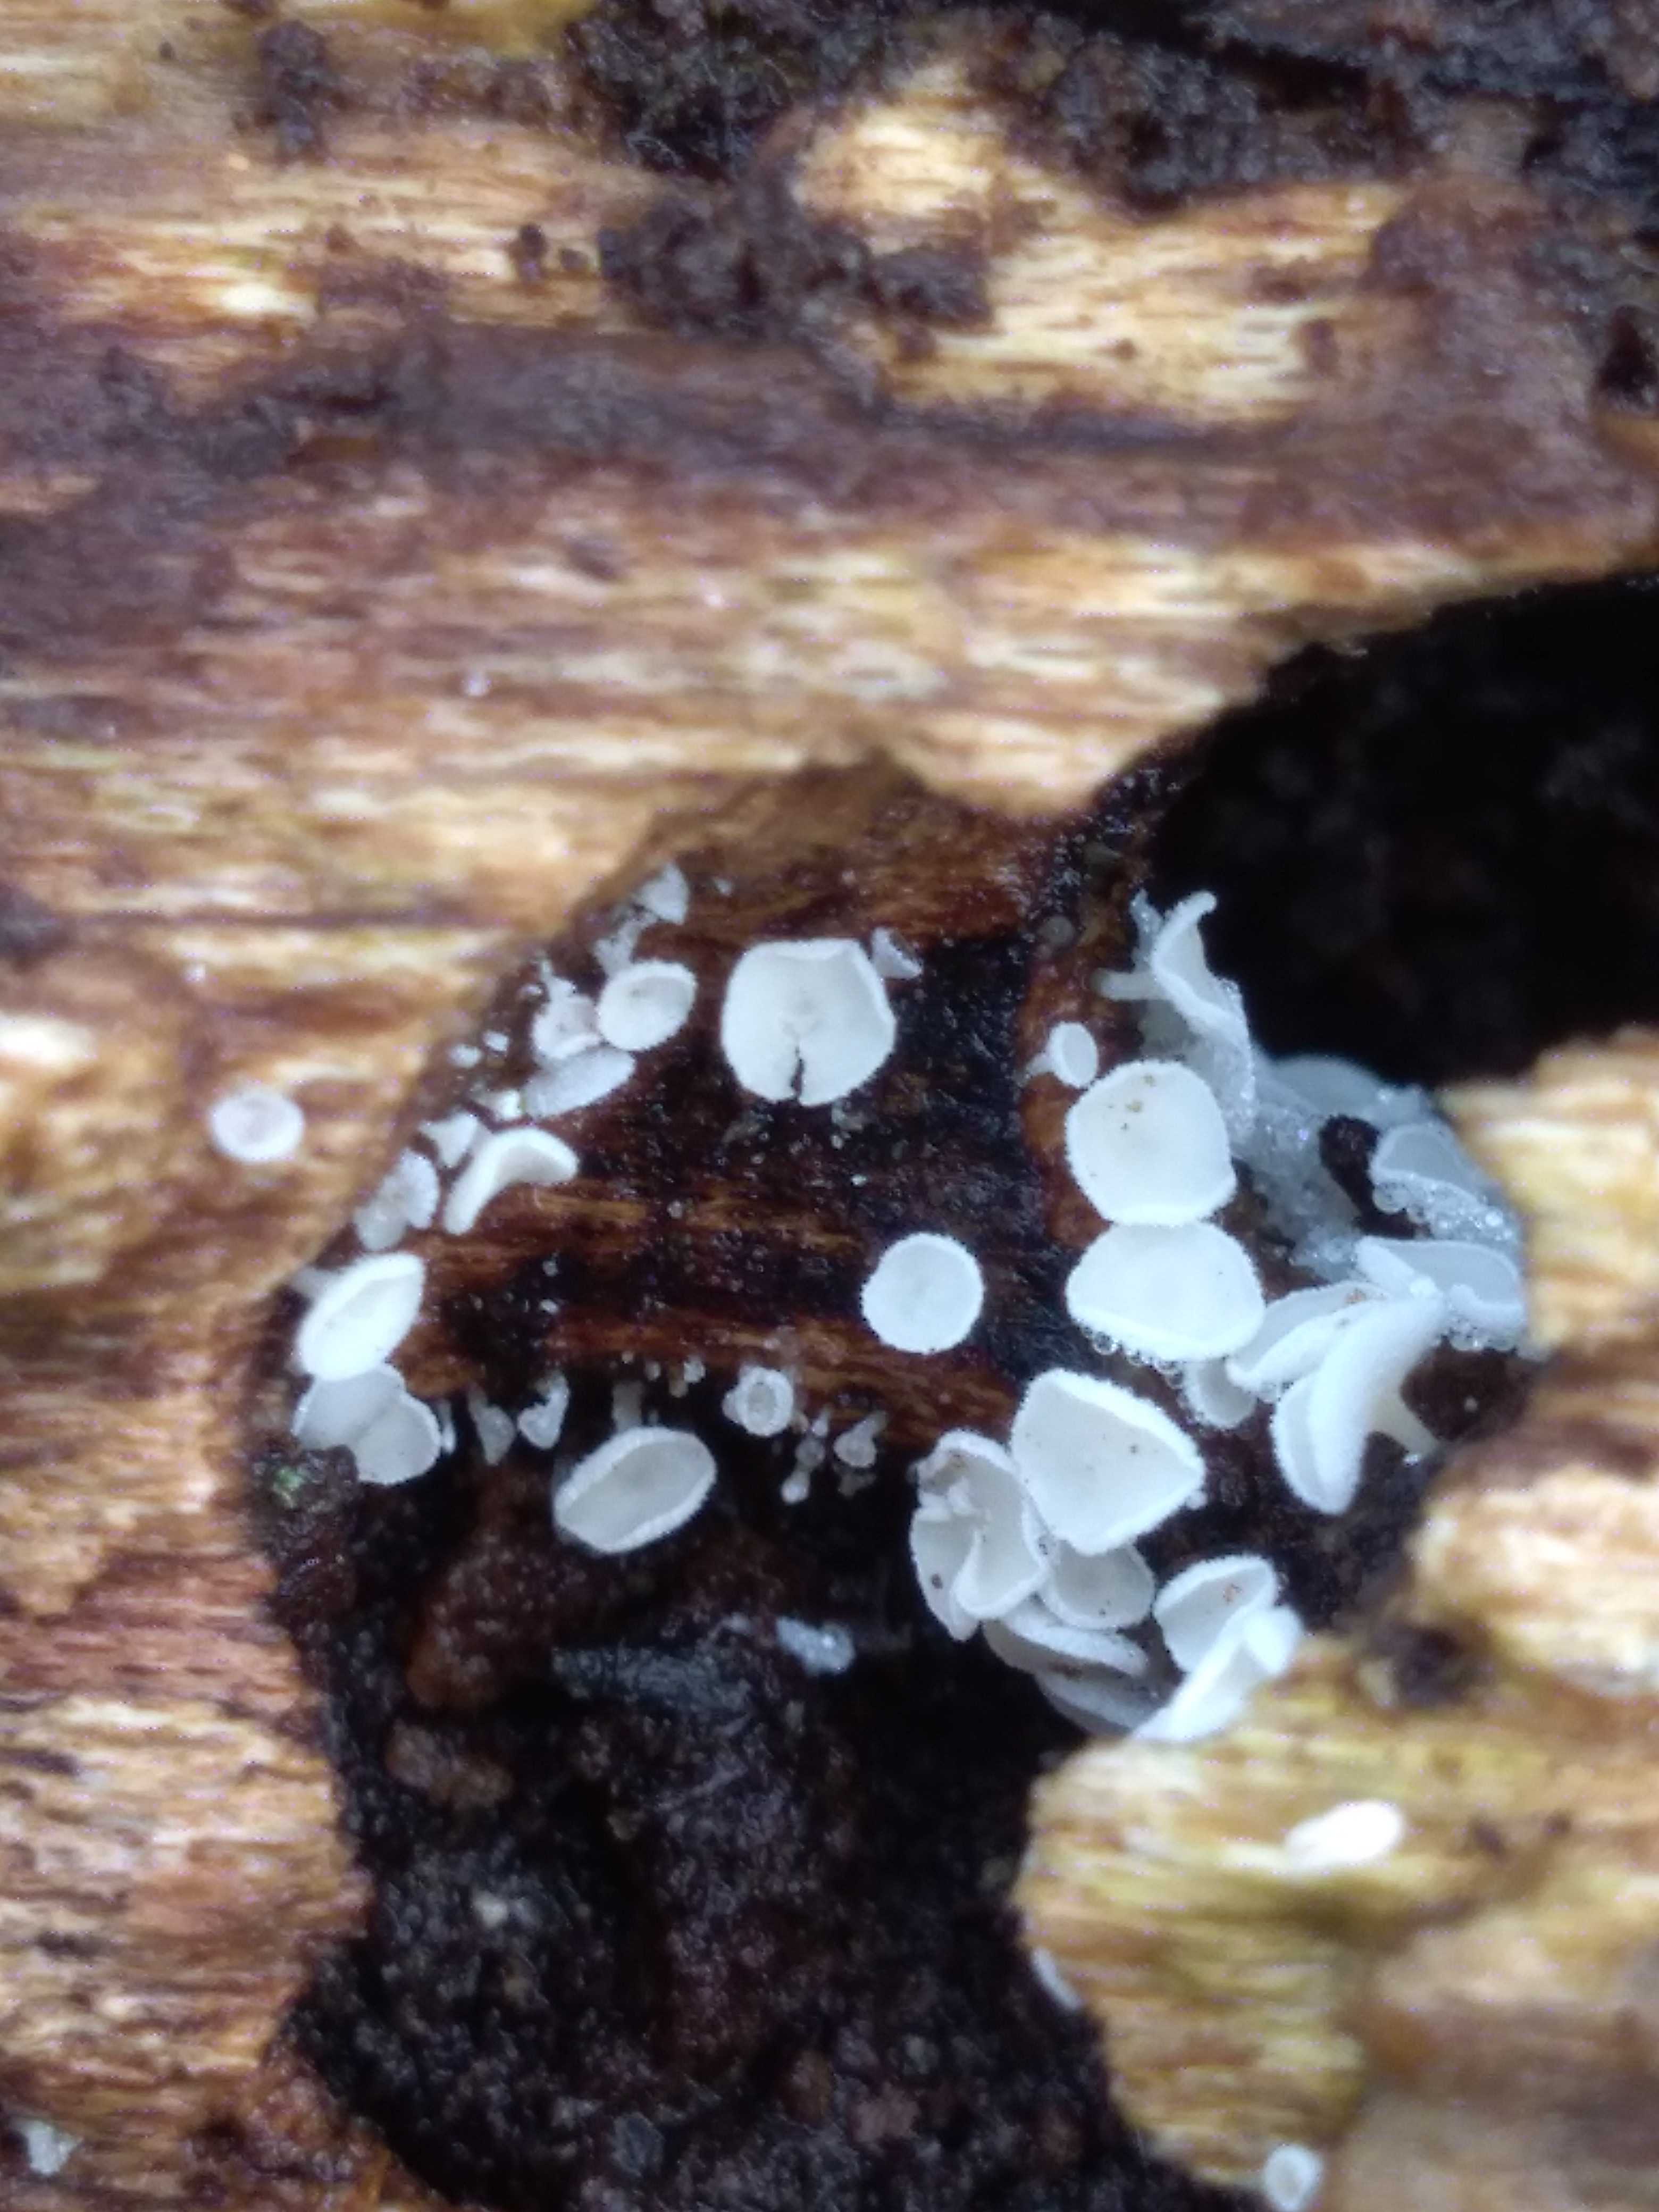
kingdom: Fungi
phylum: Ascomycota
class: Leotiomycetes
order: Helotiales
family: Lachnaceae
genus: Lachnum
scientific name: Lachnum
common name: frynseskive
